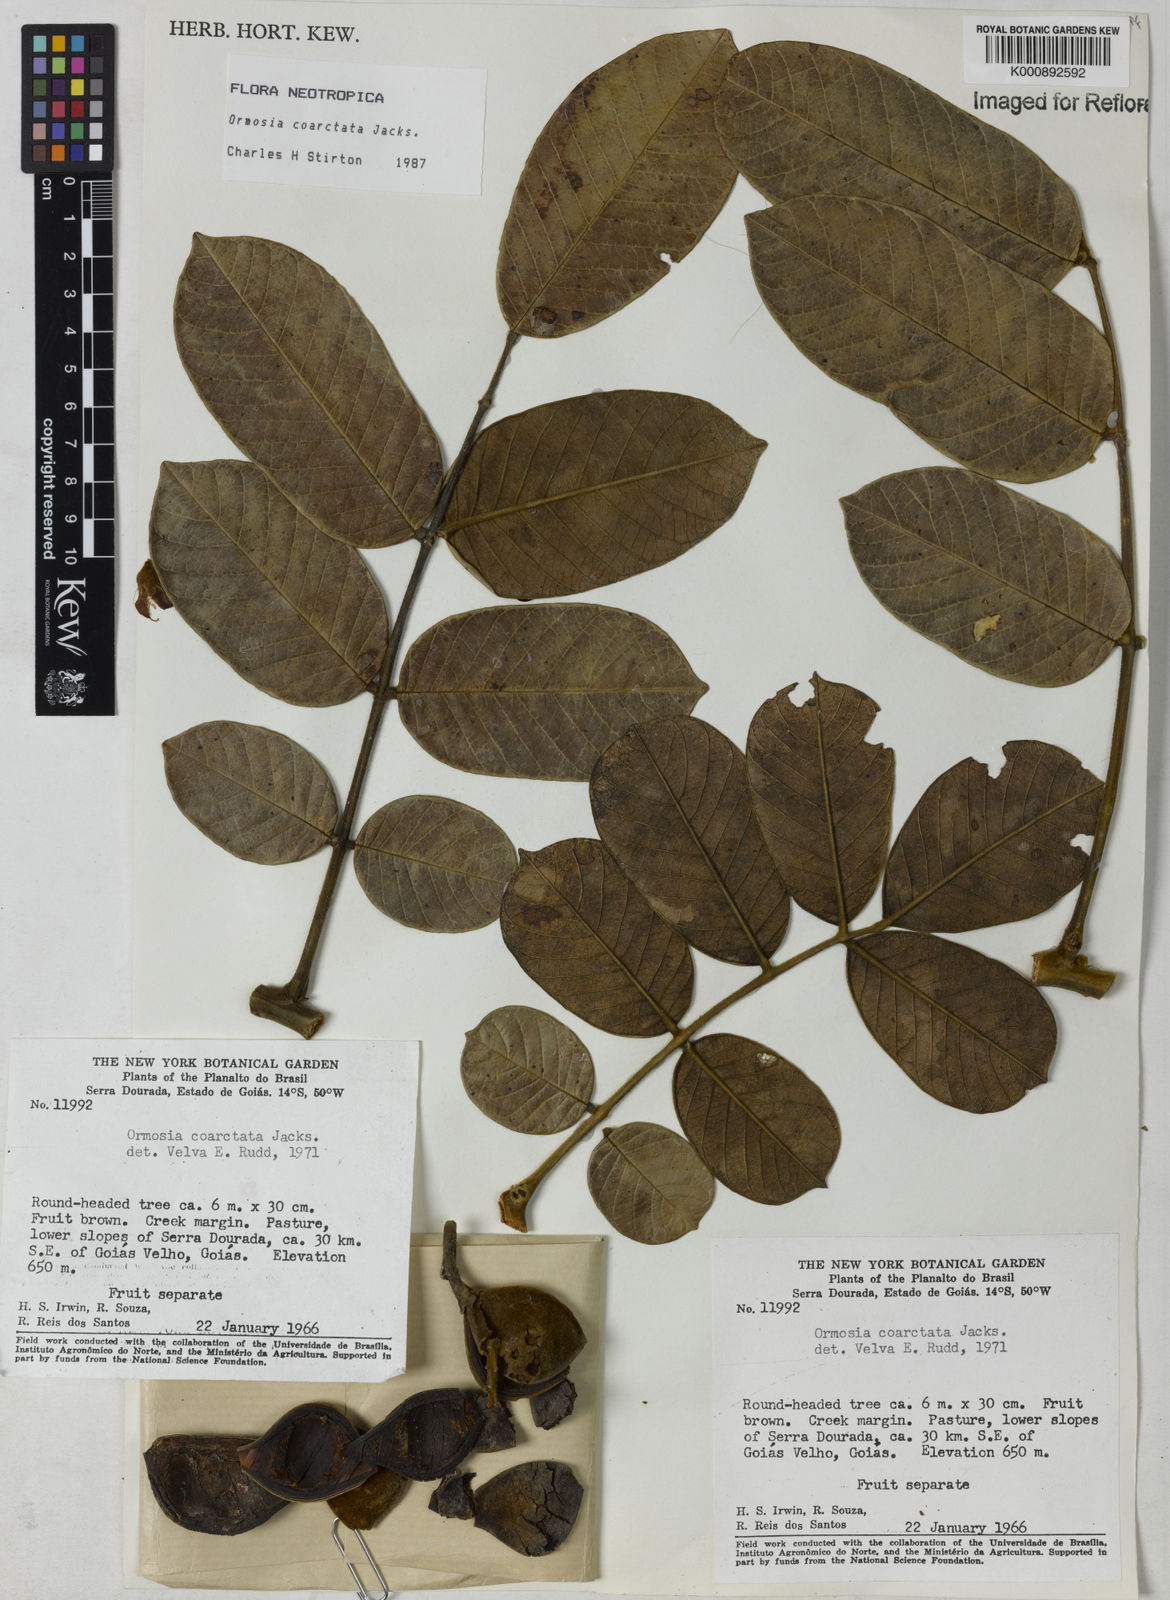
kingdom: Plantae
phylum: Tracheophyta
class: Magnoliopsida
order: Fabales
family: Fabaceae
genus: Ormosia
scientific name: Ormosia coarctata
